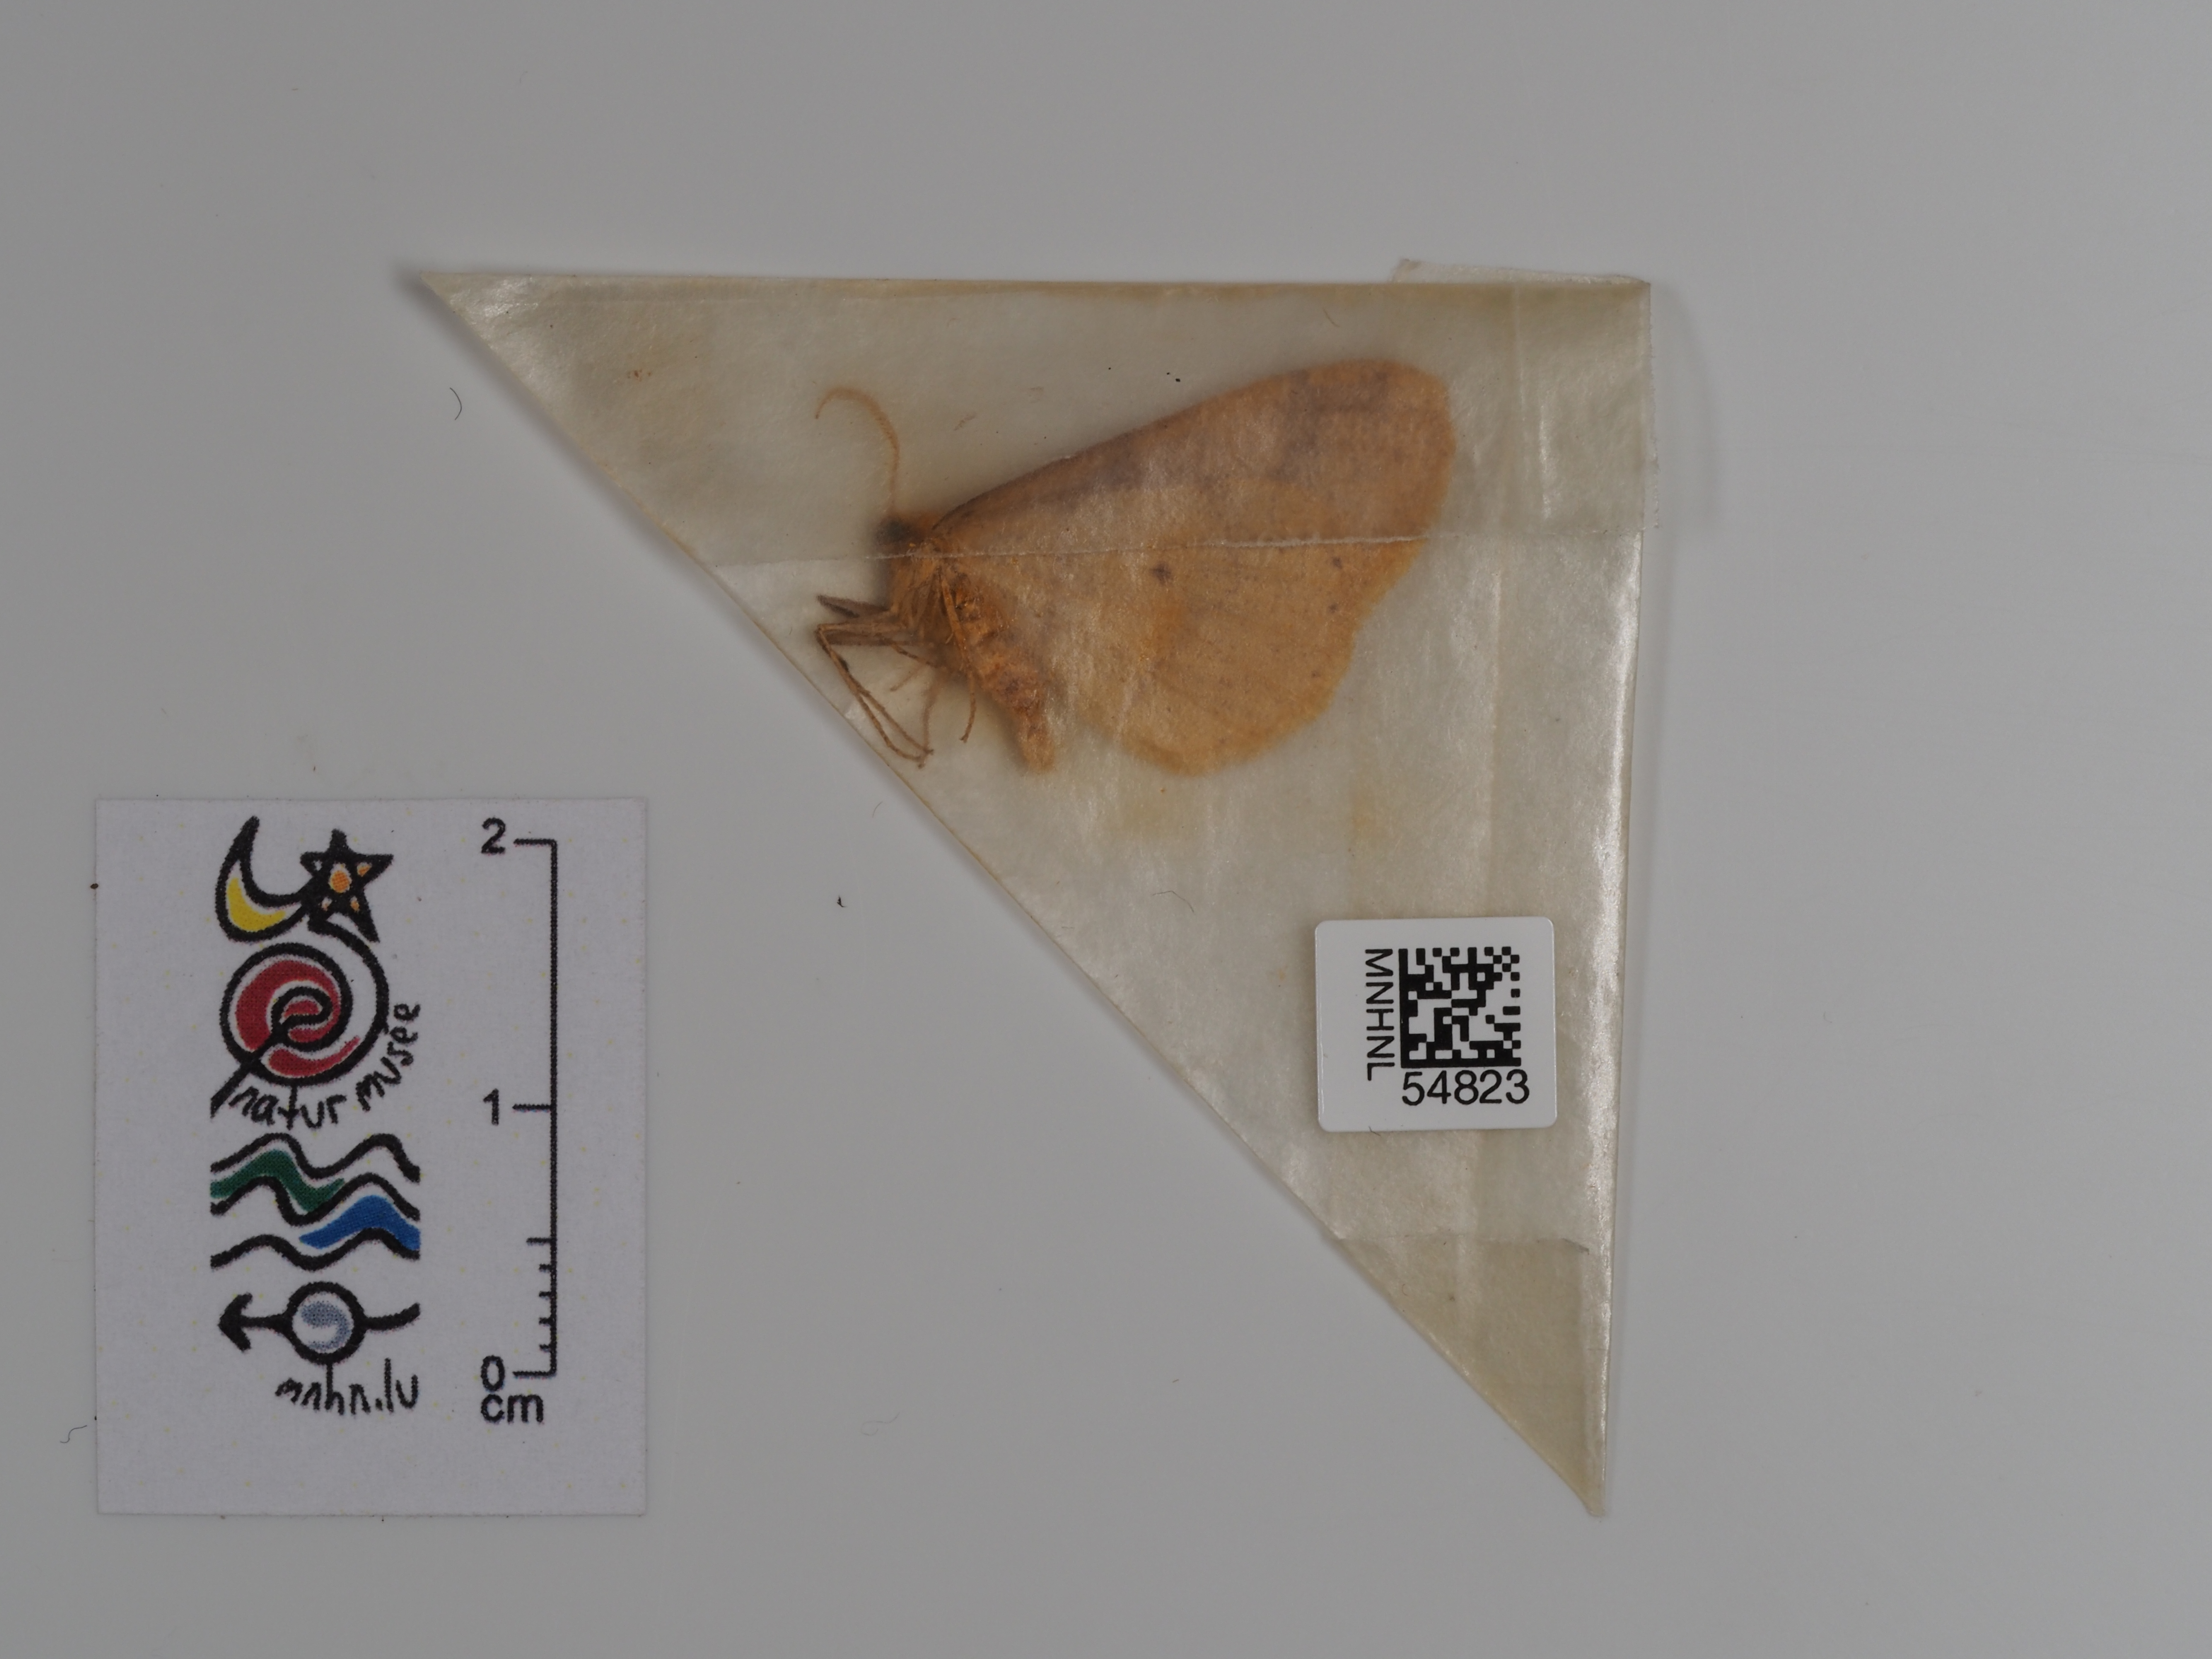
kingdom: Animalia
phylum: Arthropoda
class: Insecta
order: Lepidoptera
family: Geometridae
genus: Agriopis
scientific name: Agriopis aurantiaria
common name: Scarce umber
